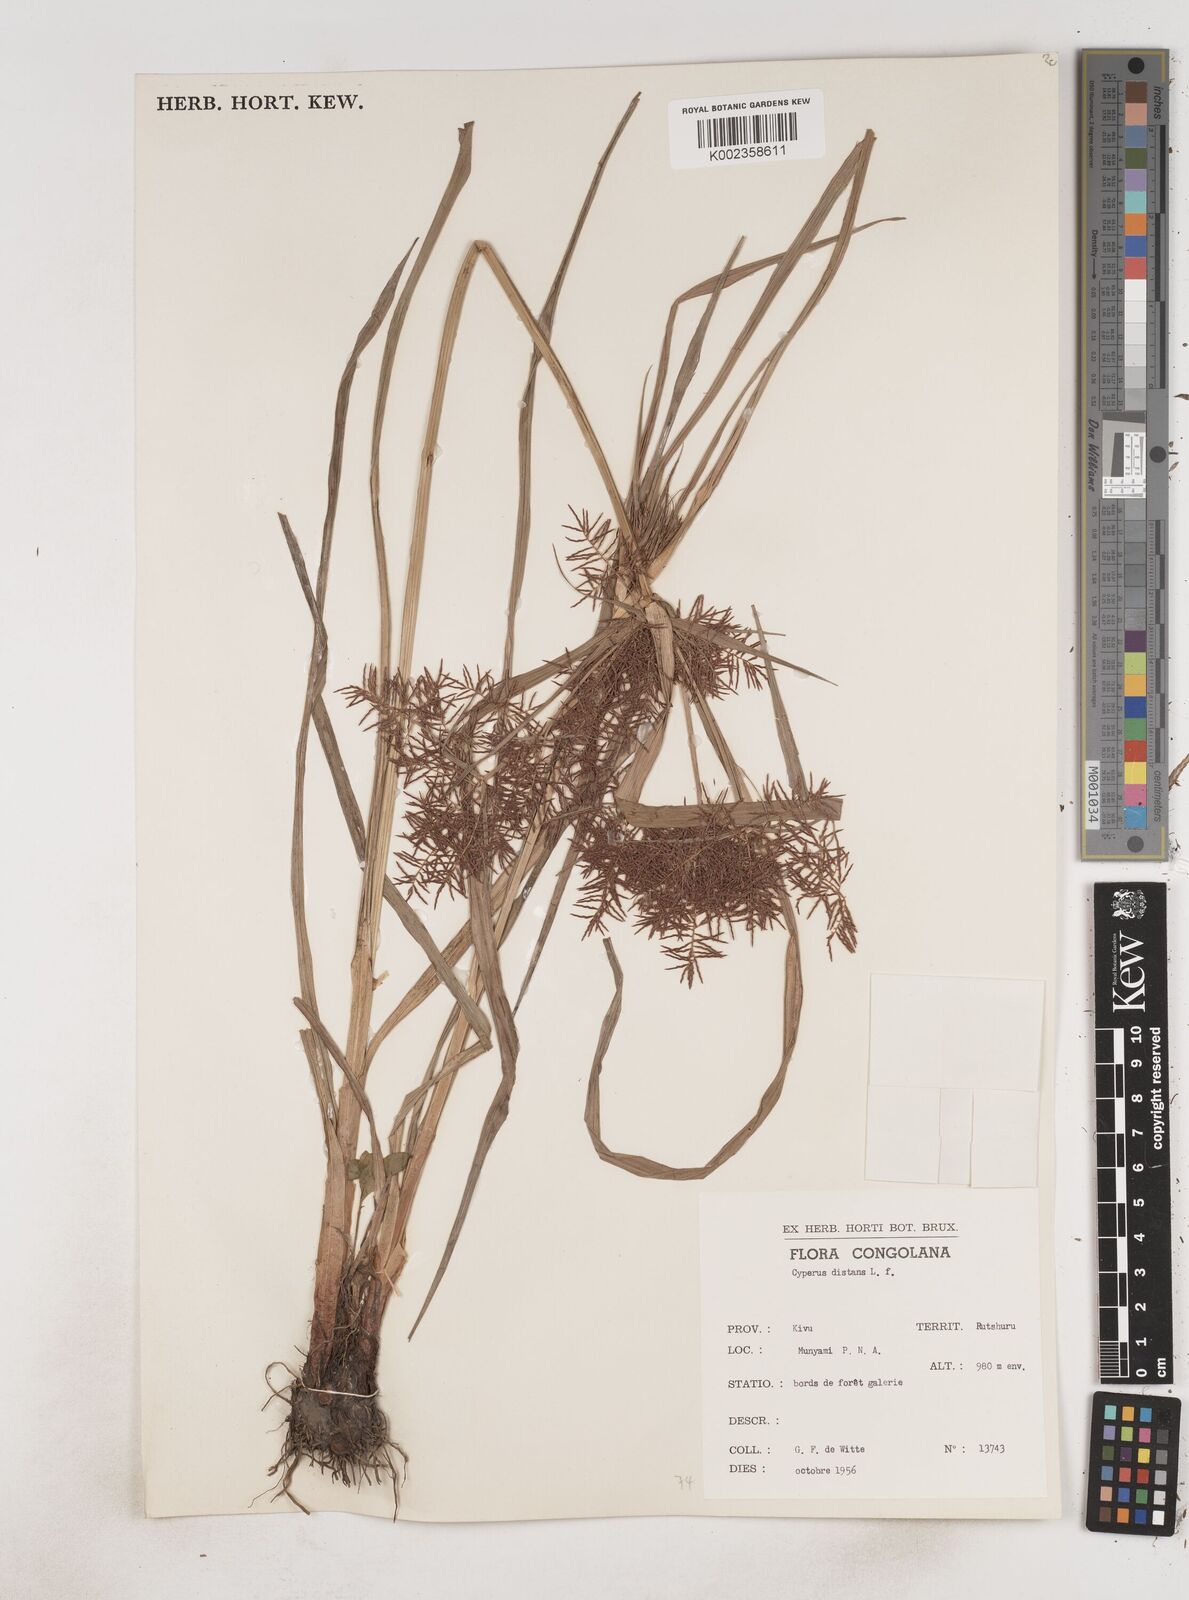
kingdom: Plantae
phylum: Tracheophyta
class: Liliopsida
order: Poales
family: Cyperaceae
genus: Cyperus
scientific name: Cyperus distans
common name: Slender cyperus
